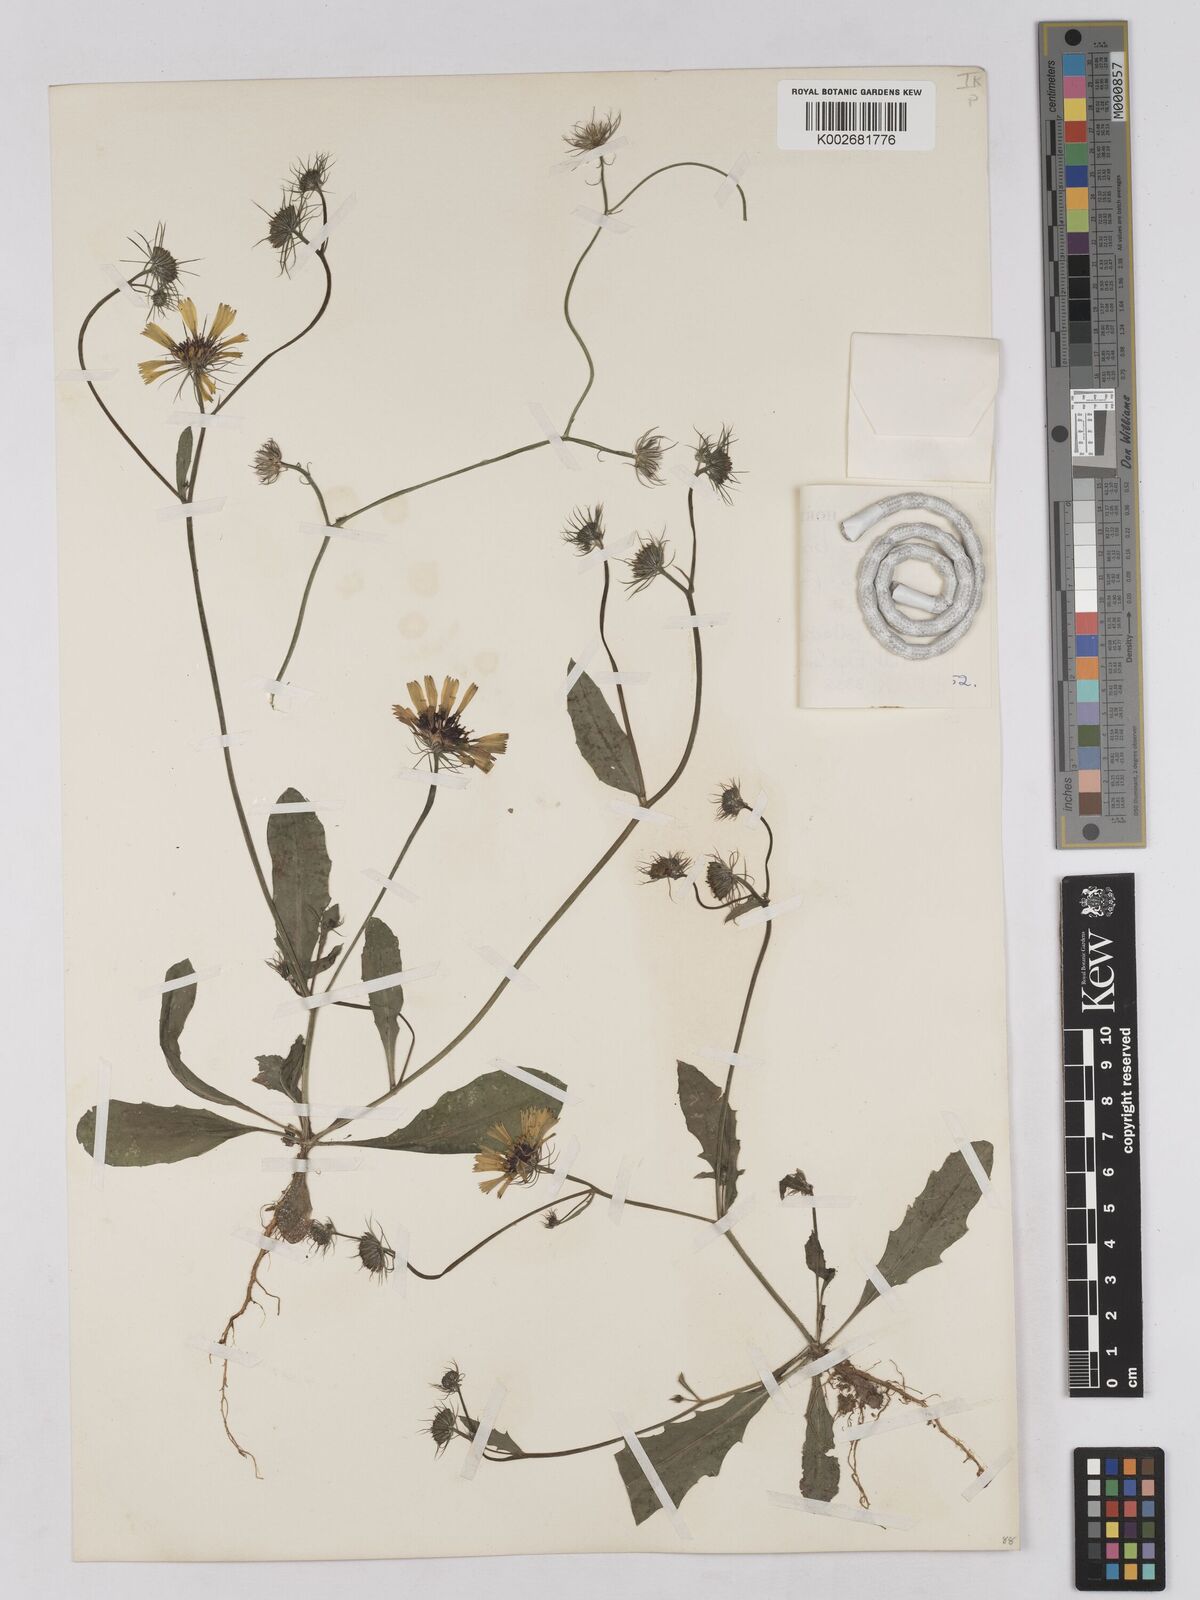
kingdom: Plantae
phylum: Tracheophyta
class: Magnoliopsida
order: Asterales
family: Asteraceae
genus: Tolpis
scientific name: Tolpis barbata
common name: Yellow hawkweed
